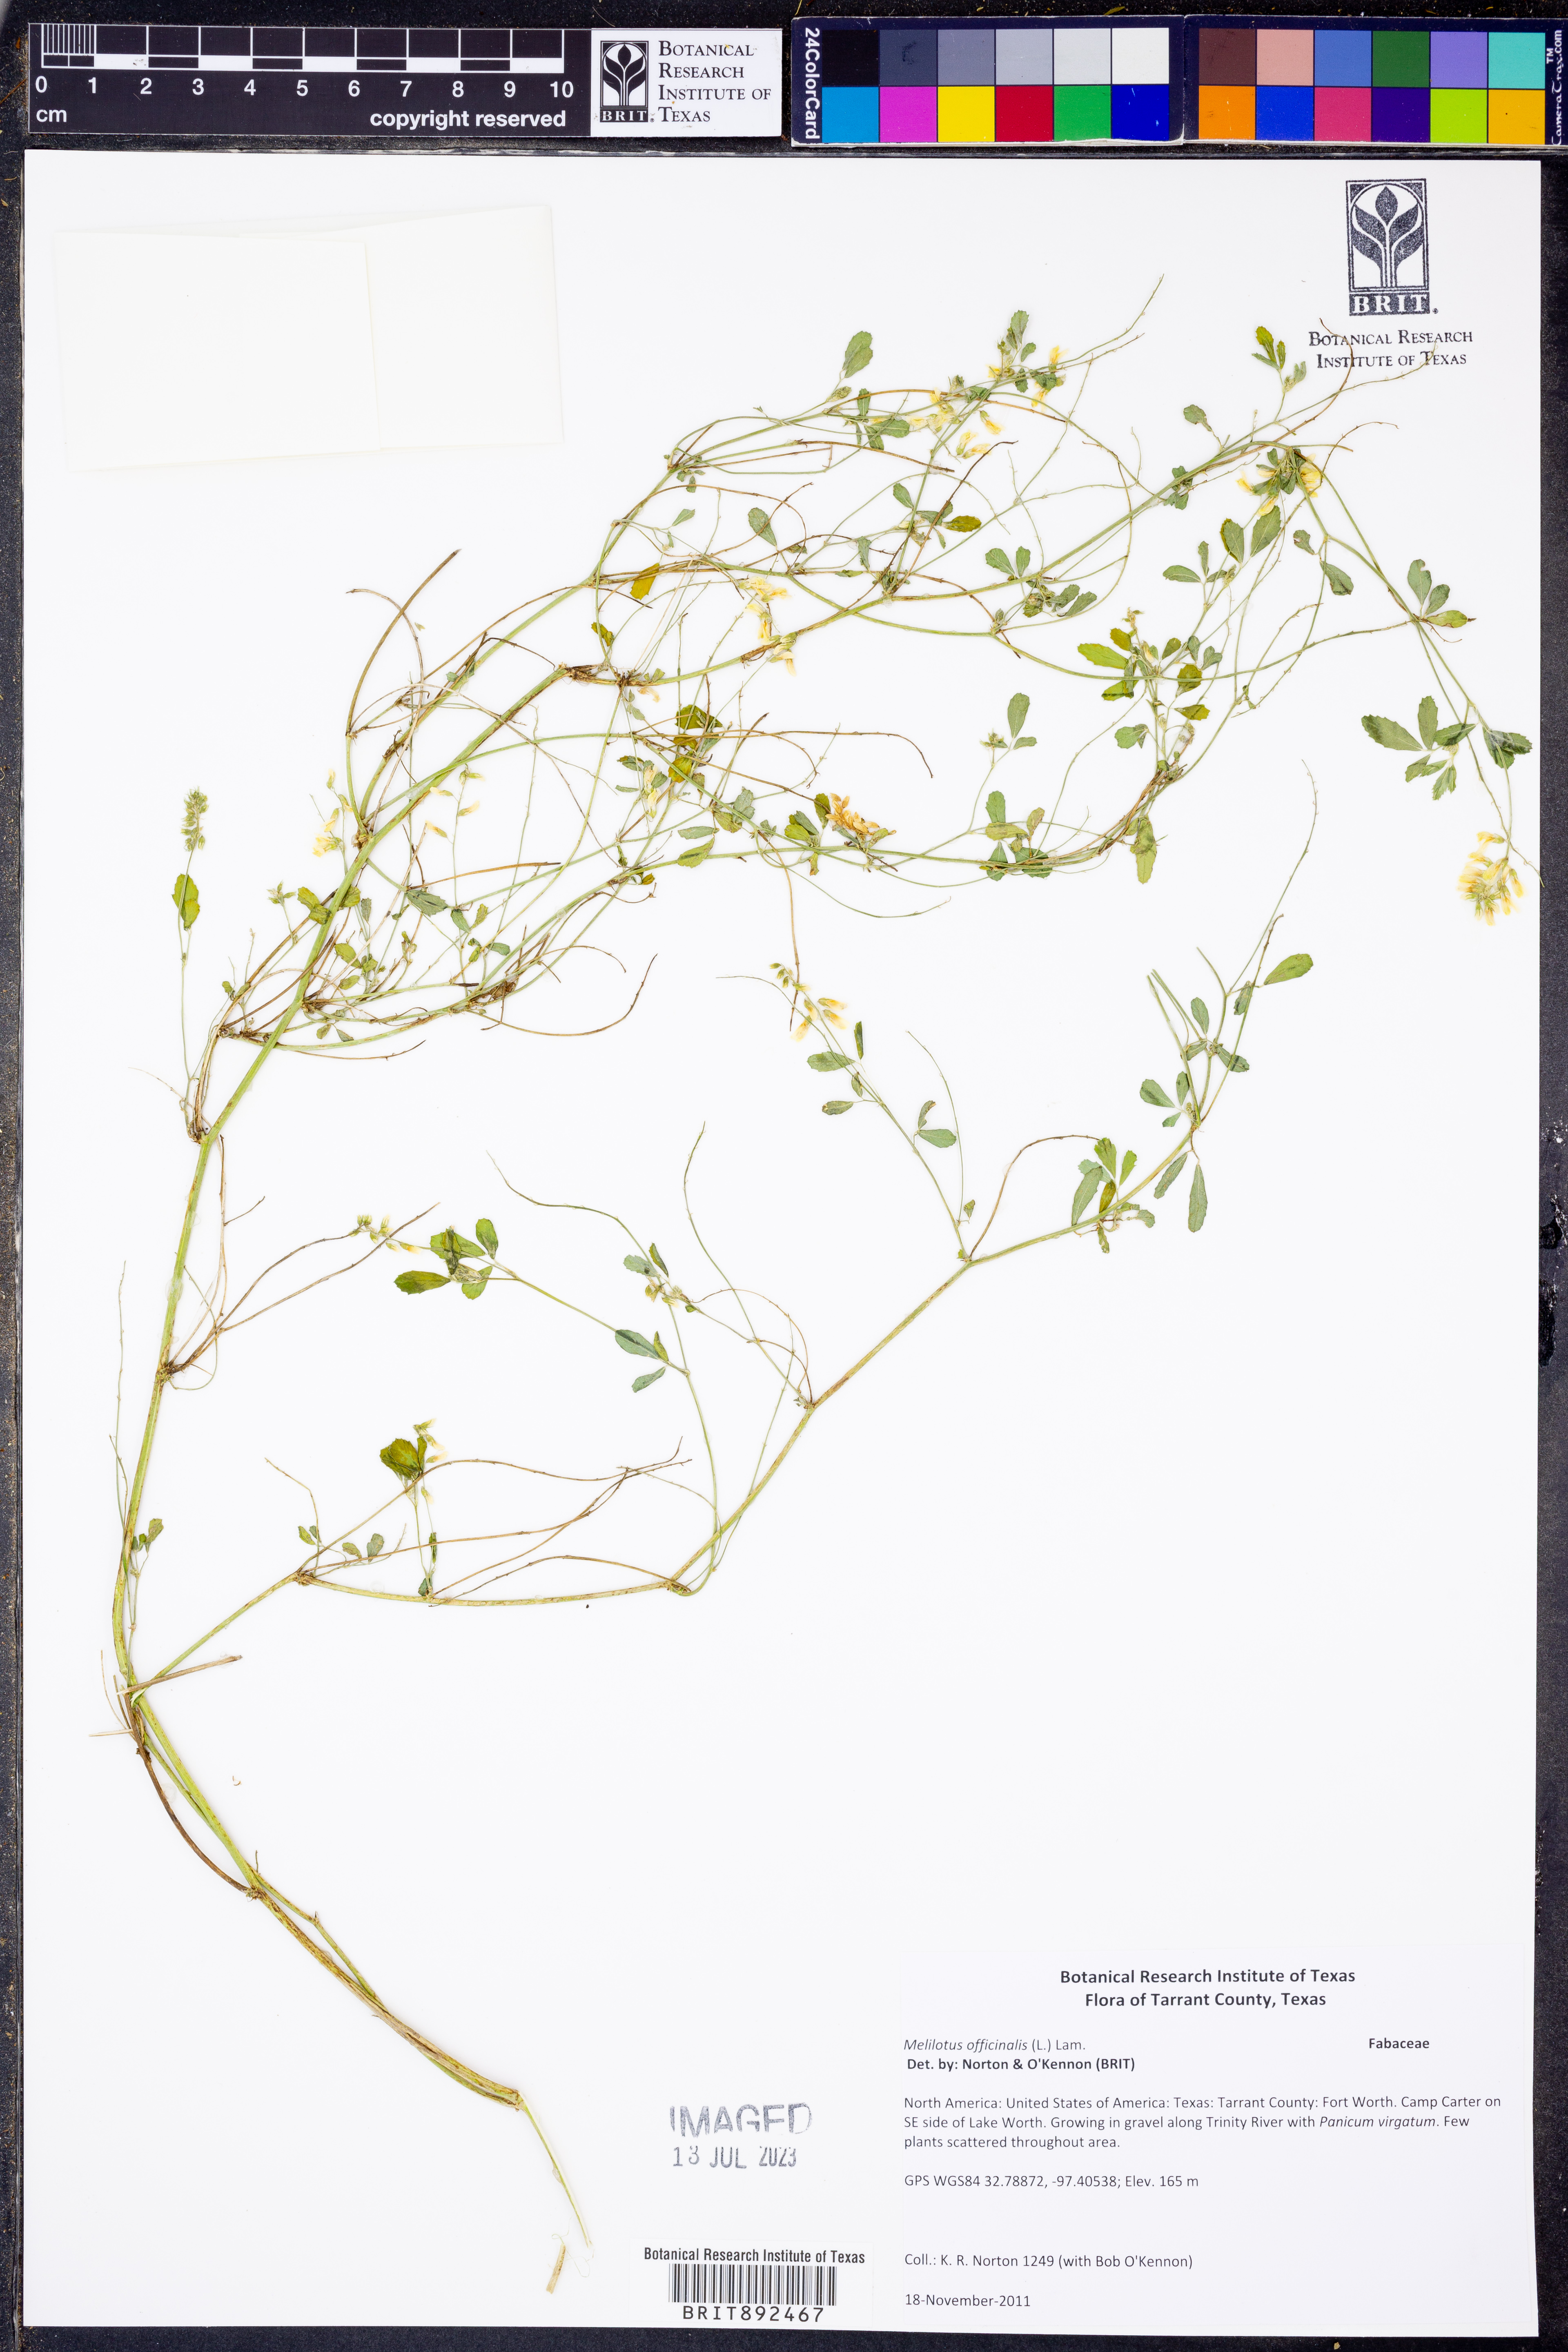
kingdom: Plantae
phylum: Tracheophyta
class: Magnoliopsida
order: Fabales
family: Fabaceae
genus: Melilotus
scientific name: Melilotus officinalis
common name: Sweetclover
